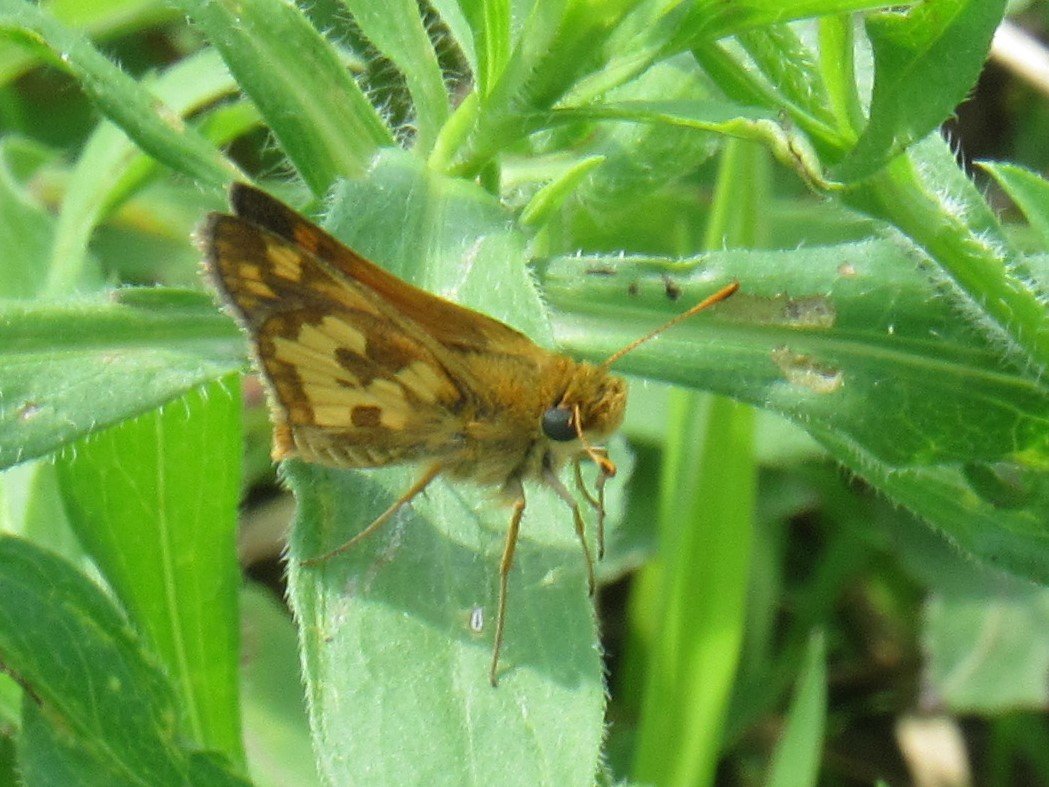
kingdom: Animalia
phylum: Arthropoda
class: Insecta
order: Lepidoptera
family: Hesperiidae
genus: Polites
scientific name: Polites coras
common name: Peck's Skipper
